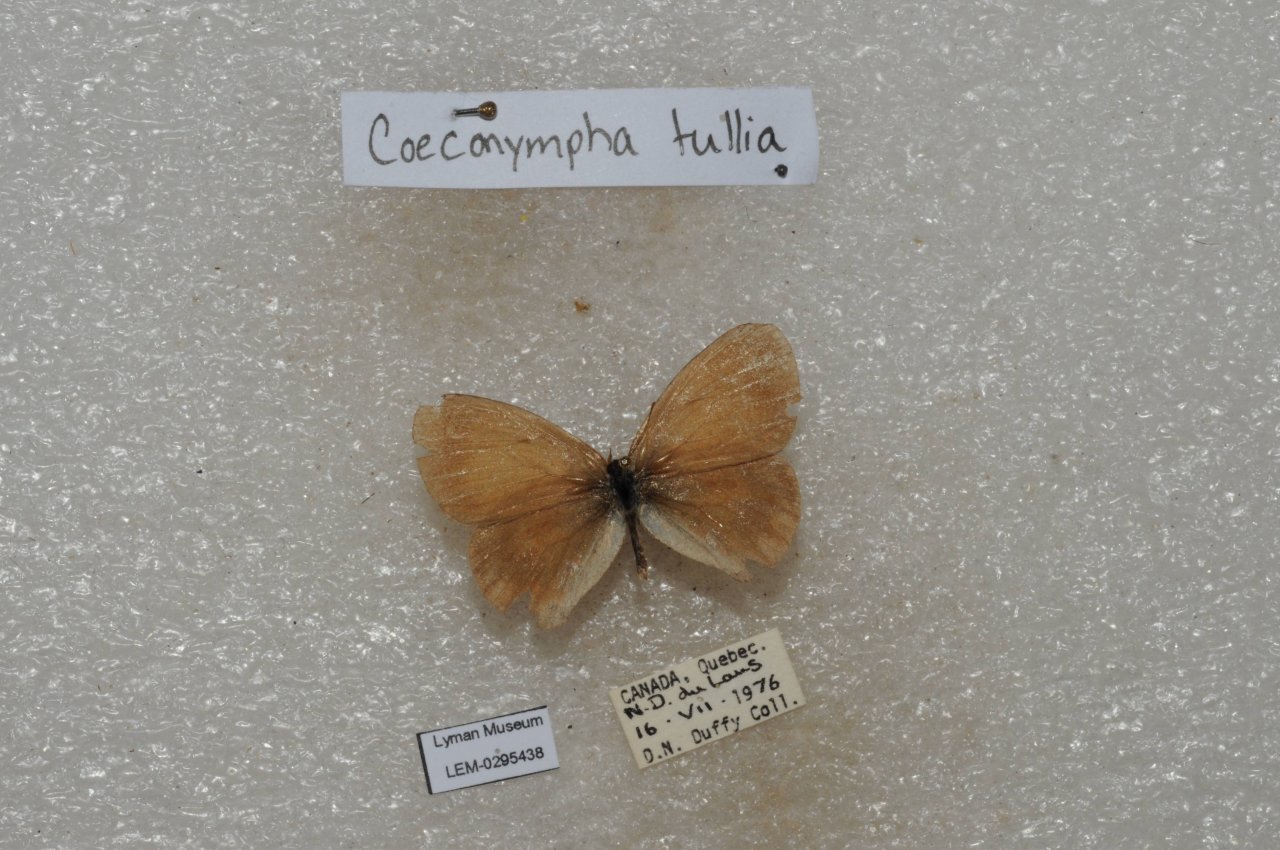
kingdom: Animalia
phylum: Arthropoda
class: Insecta
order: Lepidoptera
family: Nymphalidae
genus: Coenonympha
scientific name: Coenonympha tullia
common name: Large Heath
